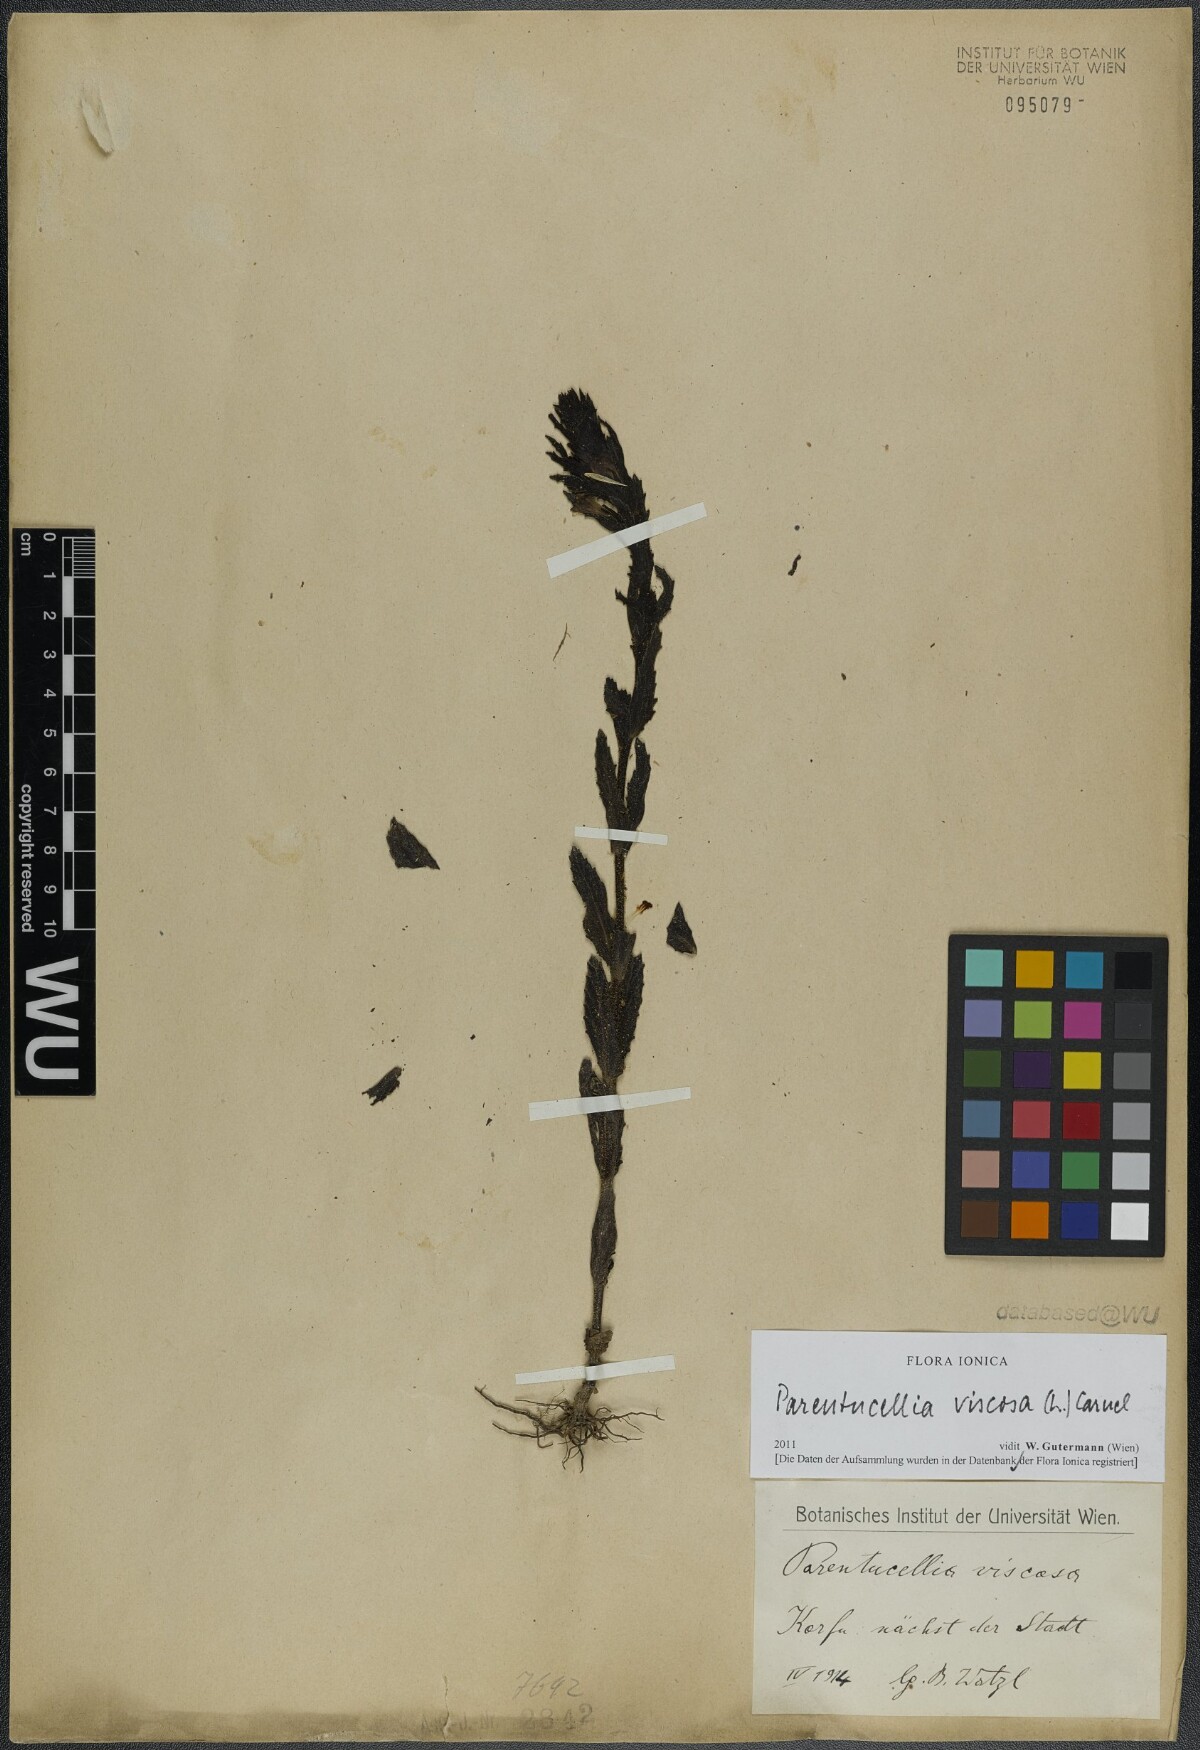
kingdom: Plantae
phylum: Tracheophyta
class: Magnoliopsida
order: Lamiales
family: Orobanchaceae
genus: Bellardia
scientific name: Bellardia viscosa
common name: Sticky parentucellia
